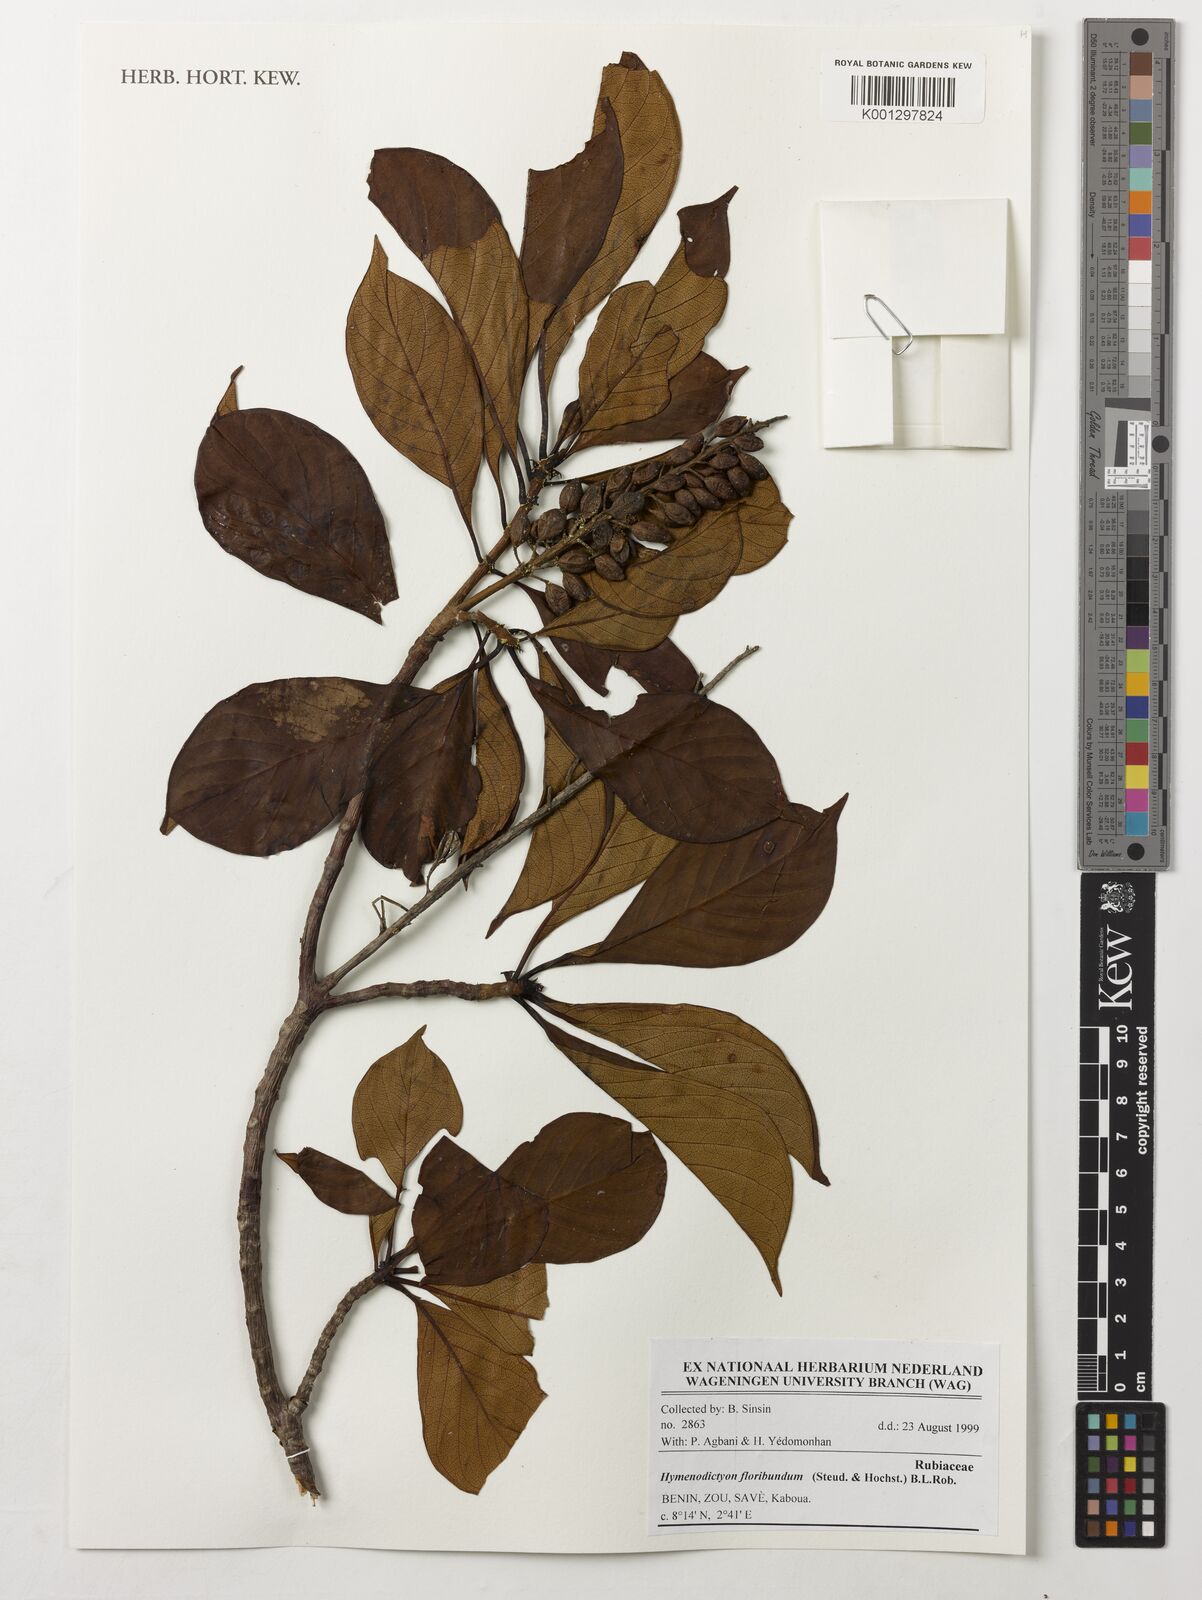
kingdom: Plantae
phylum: Tracheophyta
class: Magnoliopsida
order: Gentianales
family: Rubiaceae
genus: Hymenodictyon
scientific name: Hymenodictyon floribundum
